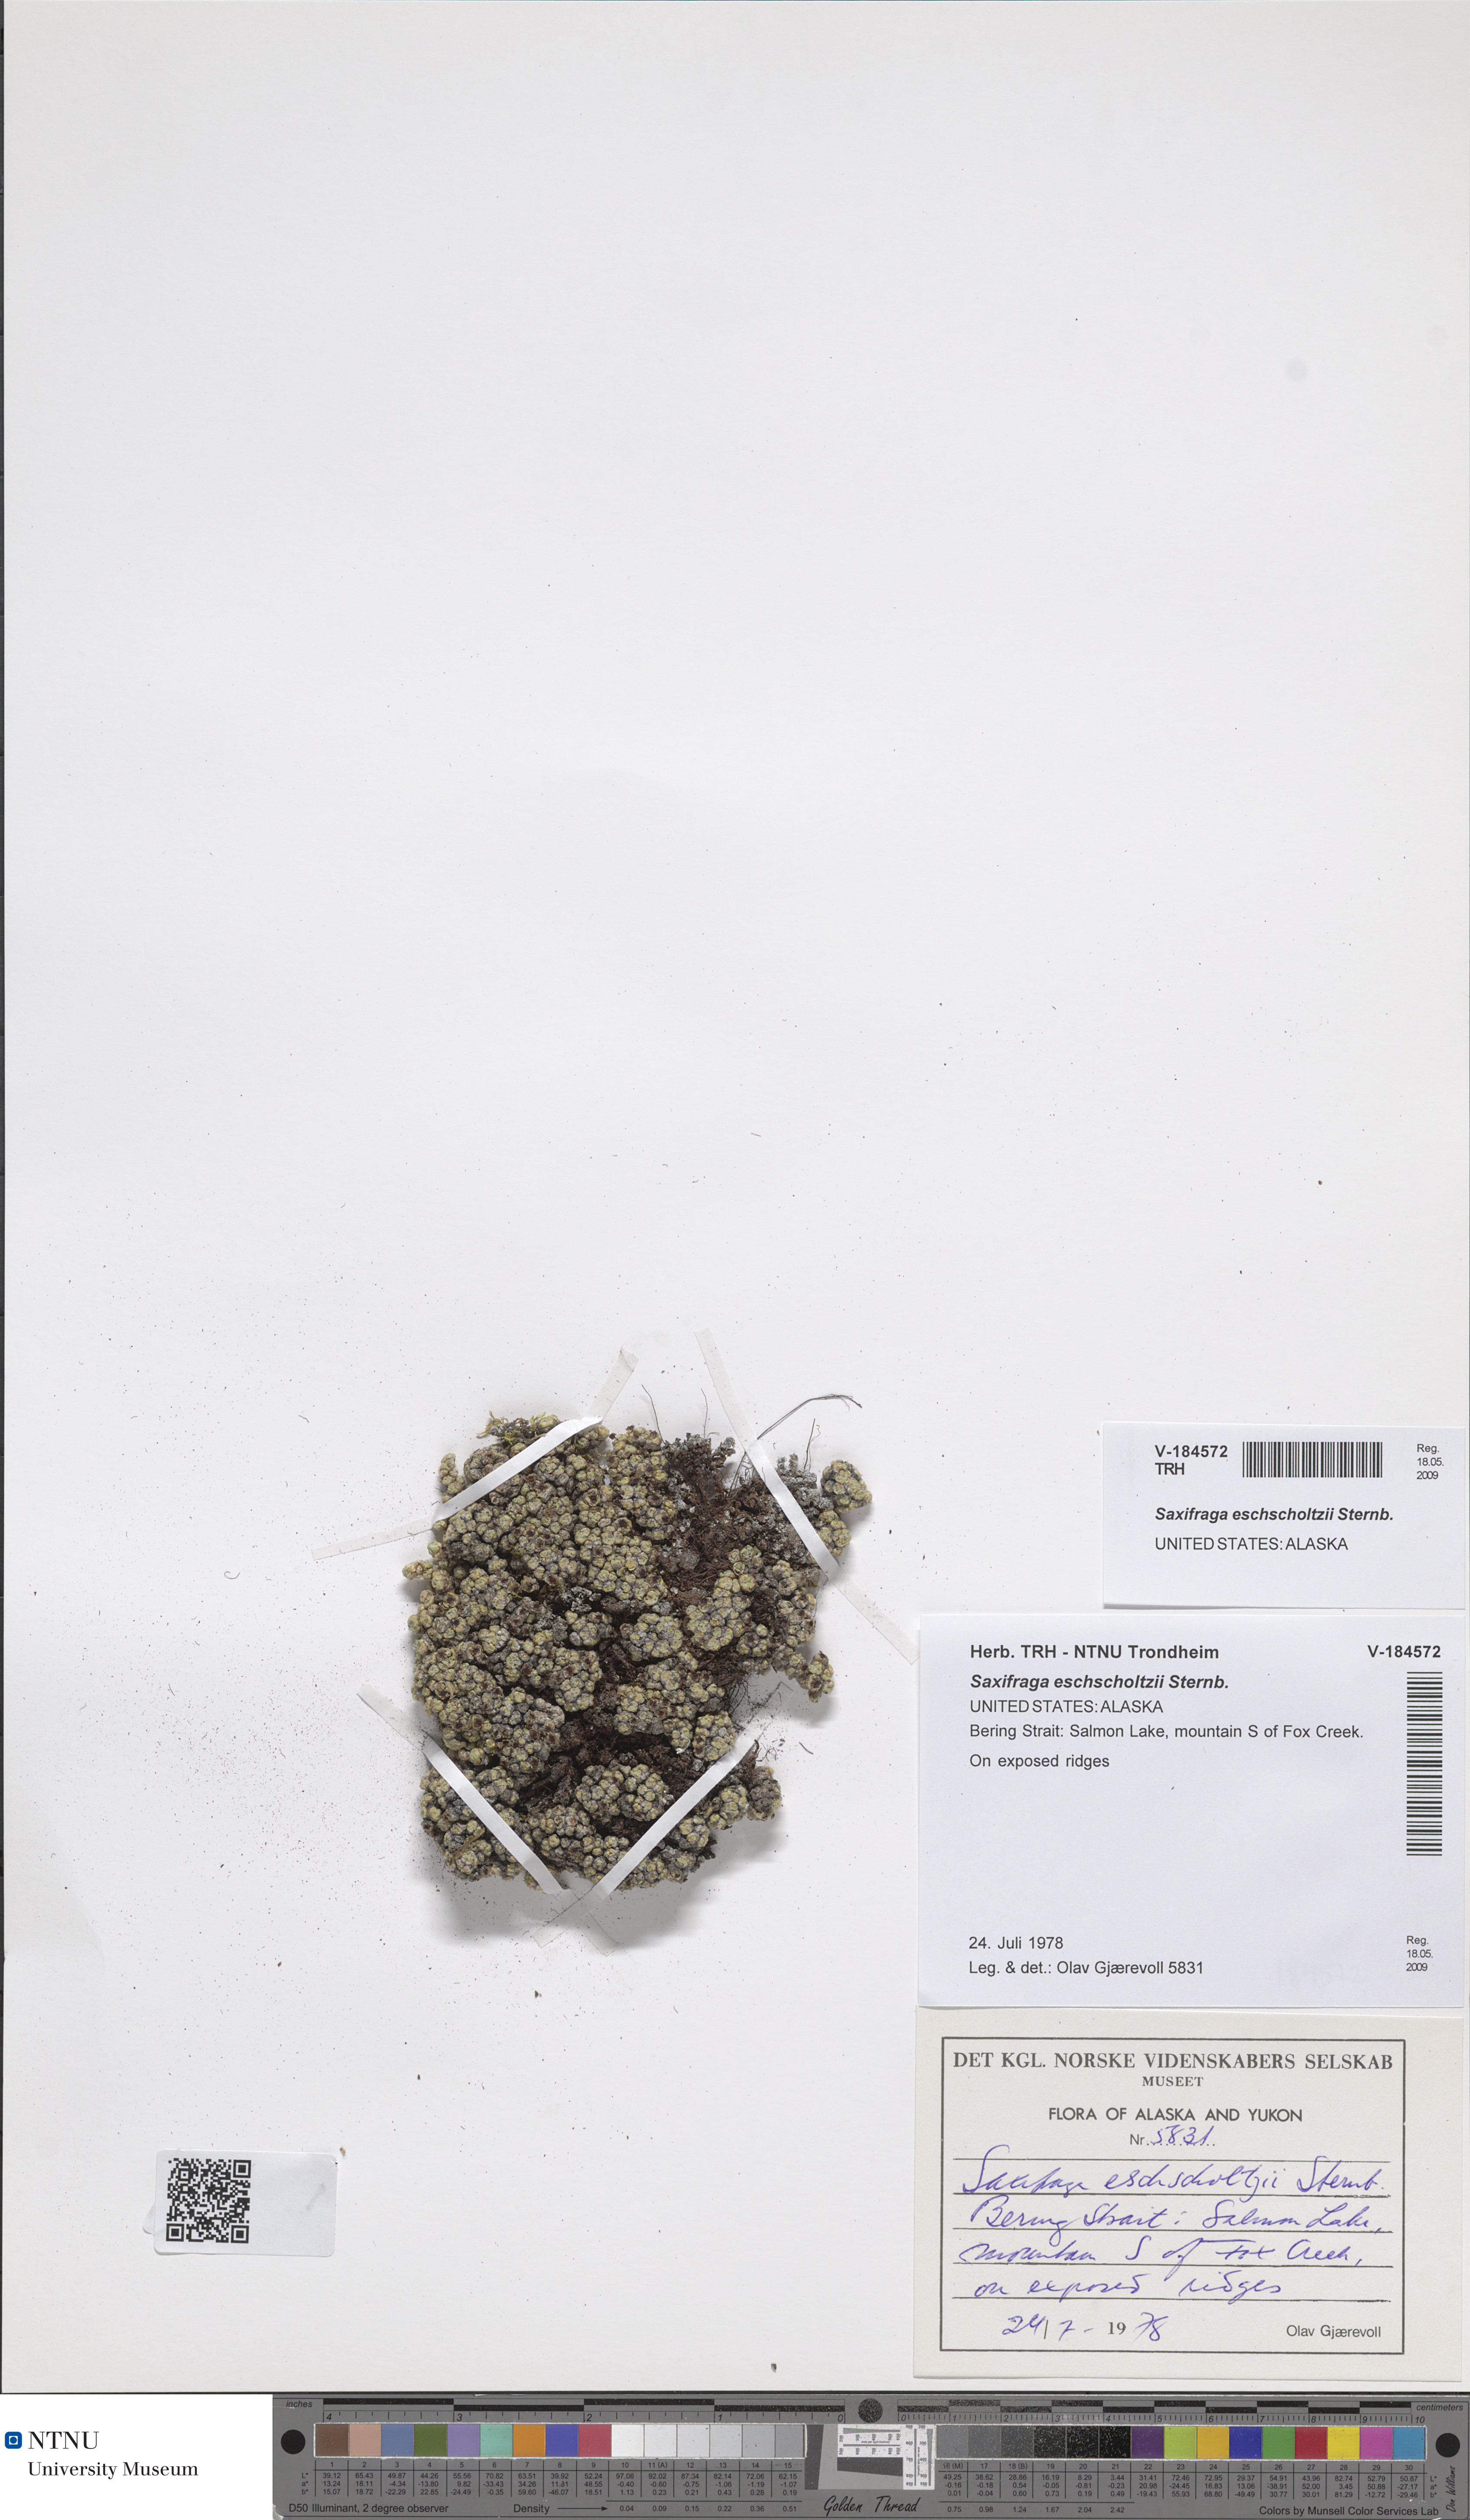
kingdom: Plantae
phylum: Tracheophyta
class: Magnoliopsida
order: Saxifragales
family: Saxifragaceae
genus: Saxifraga
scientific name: Saxifraga eschscholtzii
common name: Eschscholtz's saxifrage
